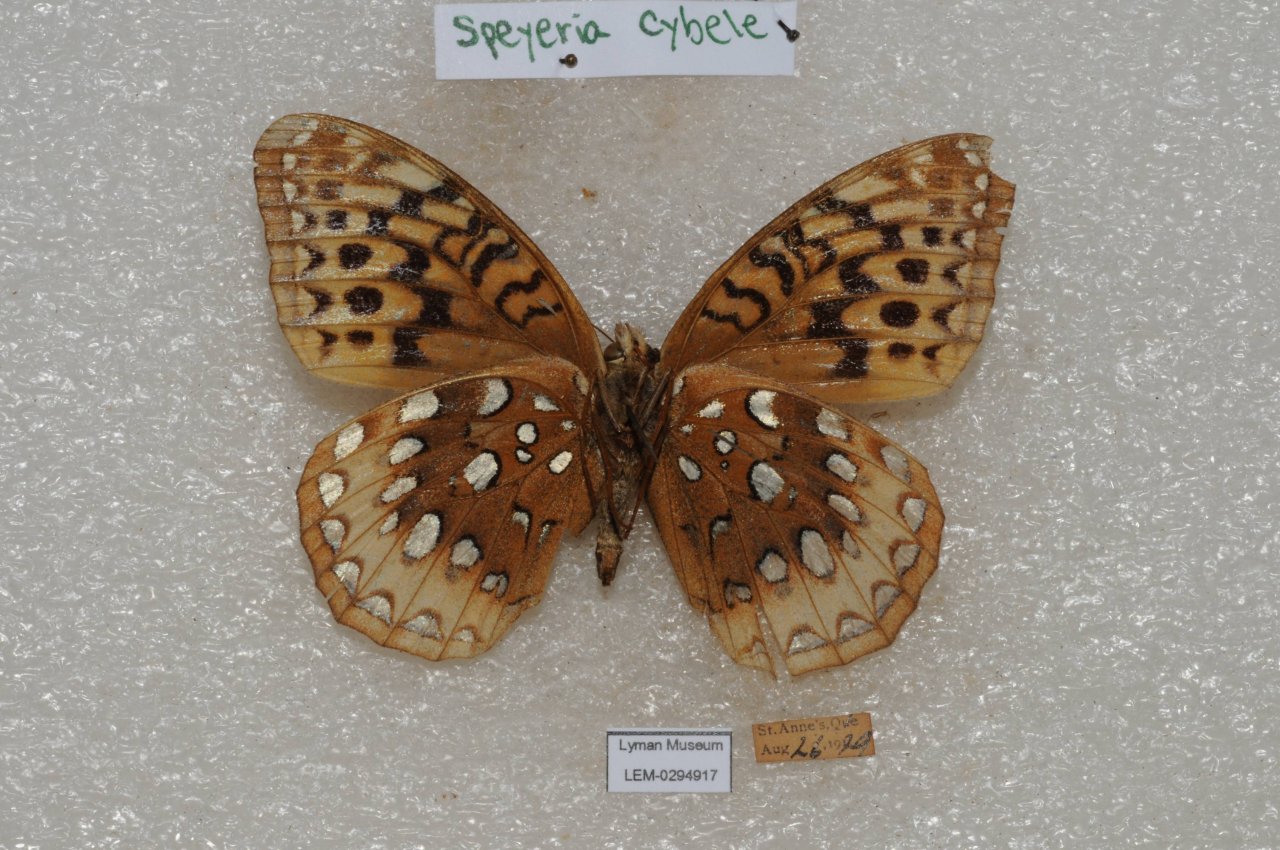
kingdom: Animalia
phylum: Arthropoda
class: Insecta
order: Lepidoptera
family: Nymphalidae
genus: Speyeria
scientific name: Speyeria cybele
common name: Great Spangled Fritillary
